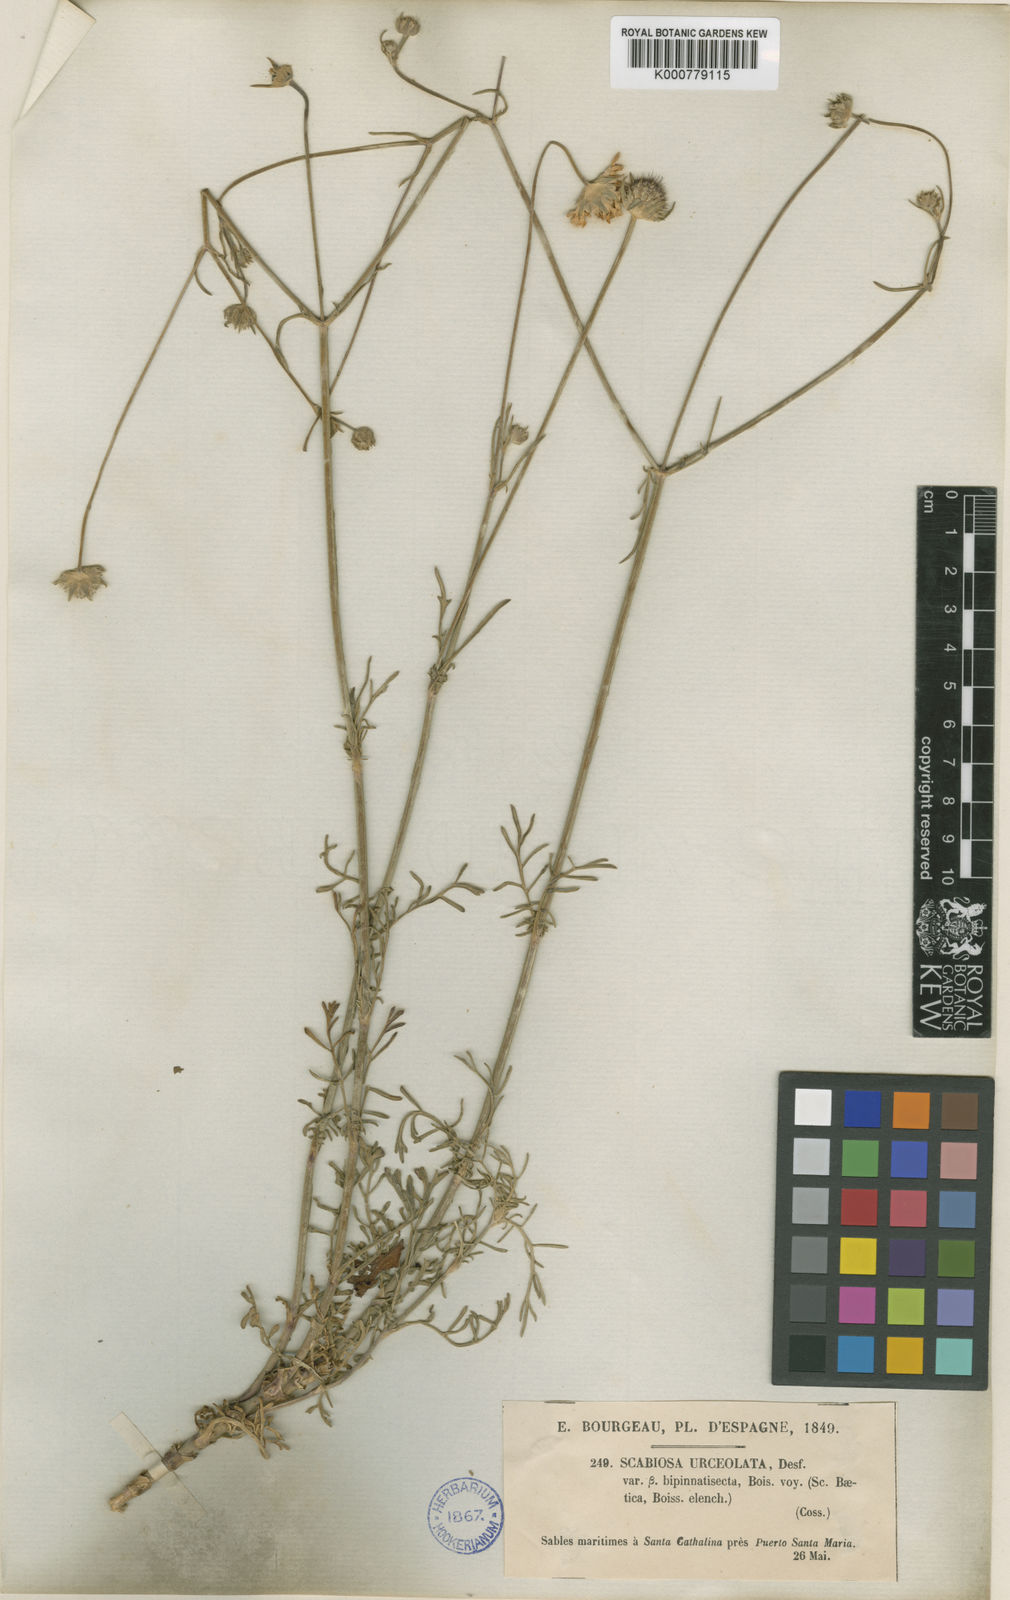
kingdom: Plantae
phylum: Tracheophyta
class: Magnoliopsida
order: Dipsacales
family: Caprifoliaceae
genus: Pycnocomon
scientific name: Pycnocomon rutifolium
